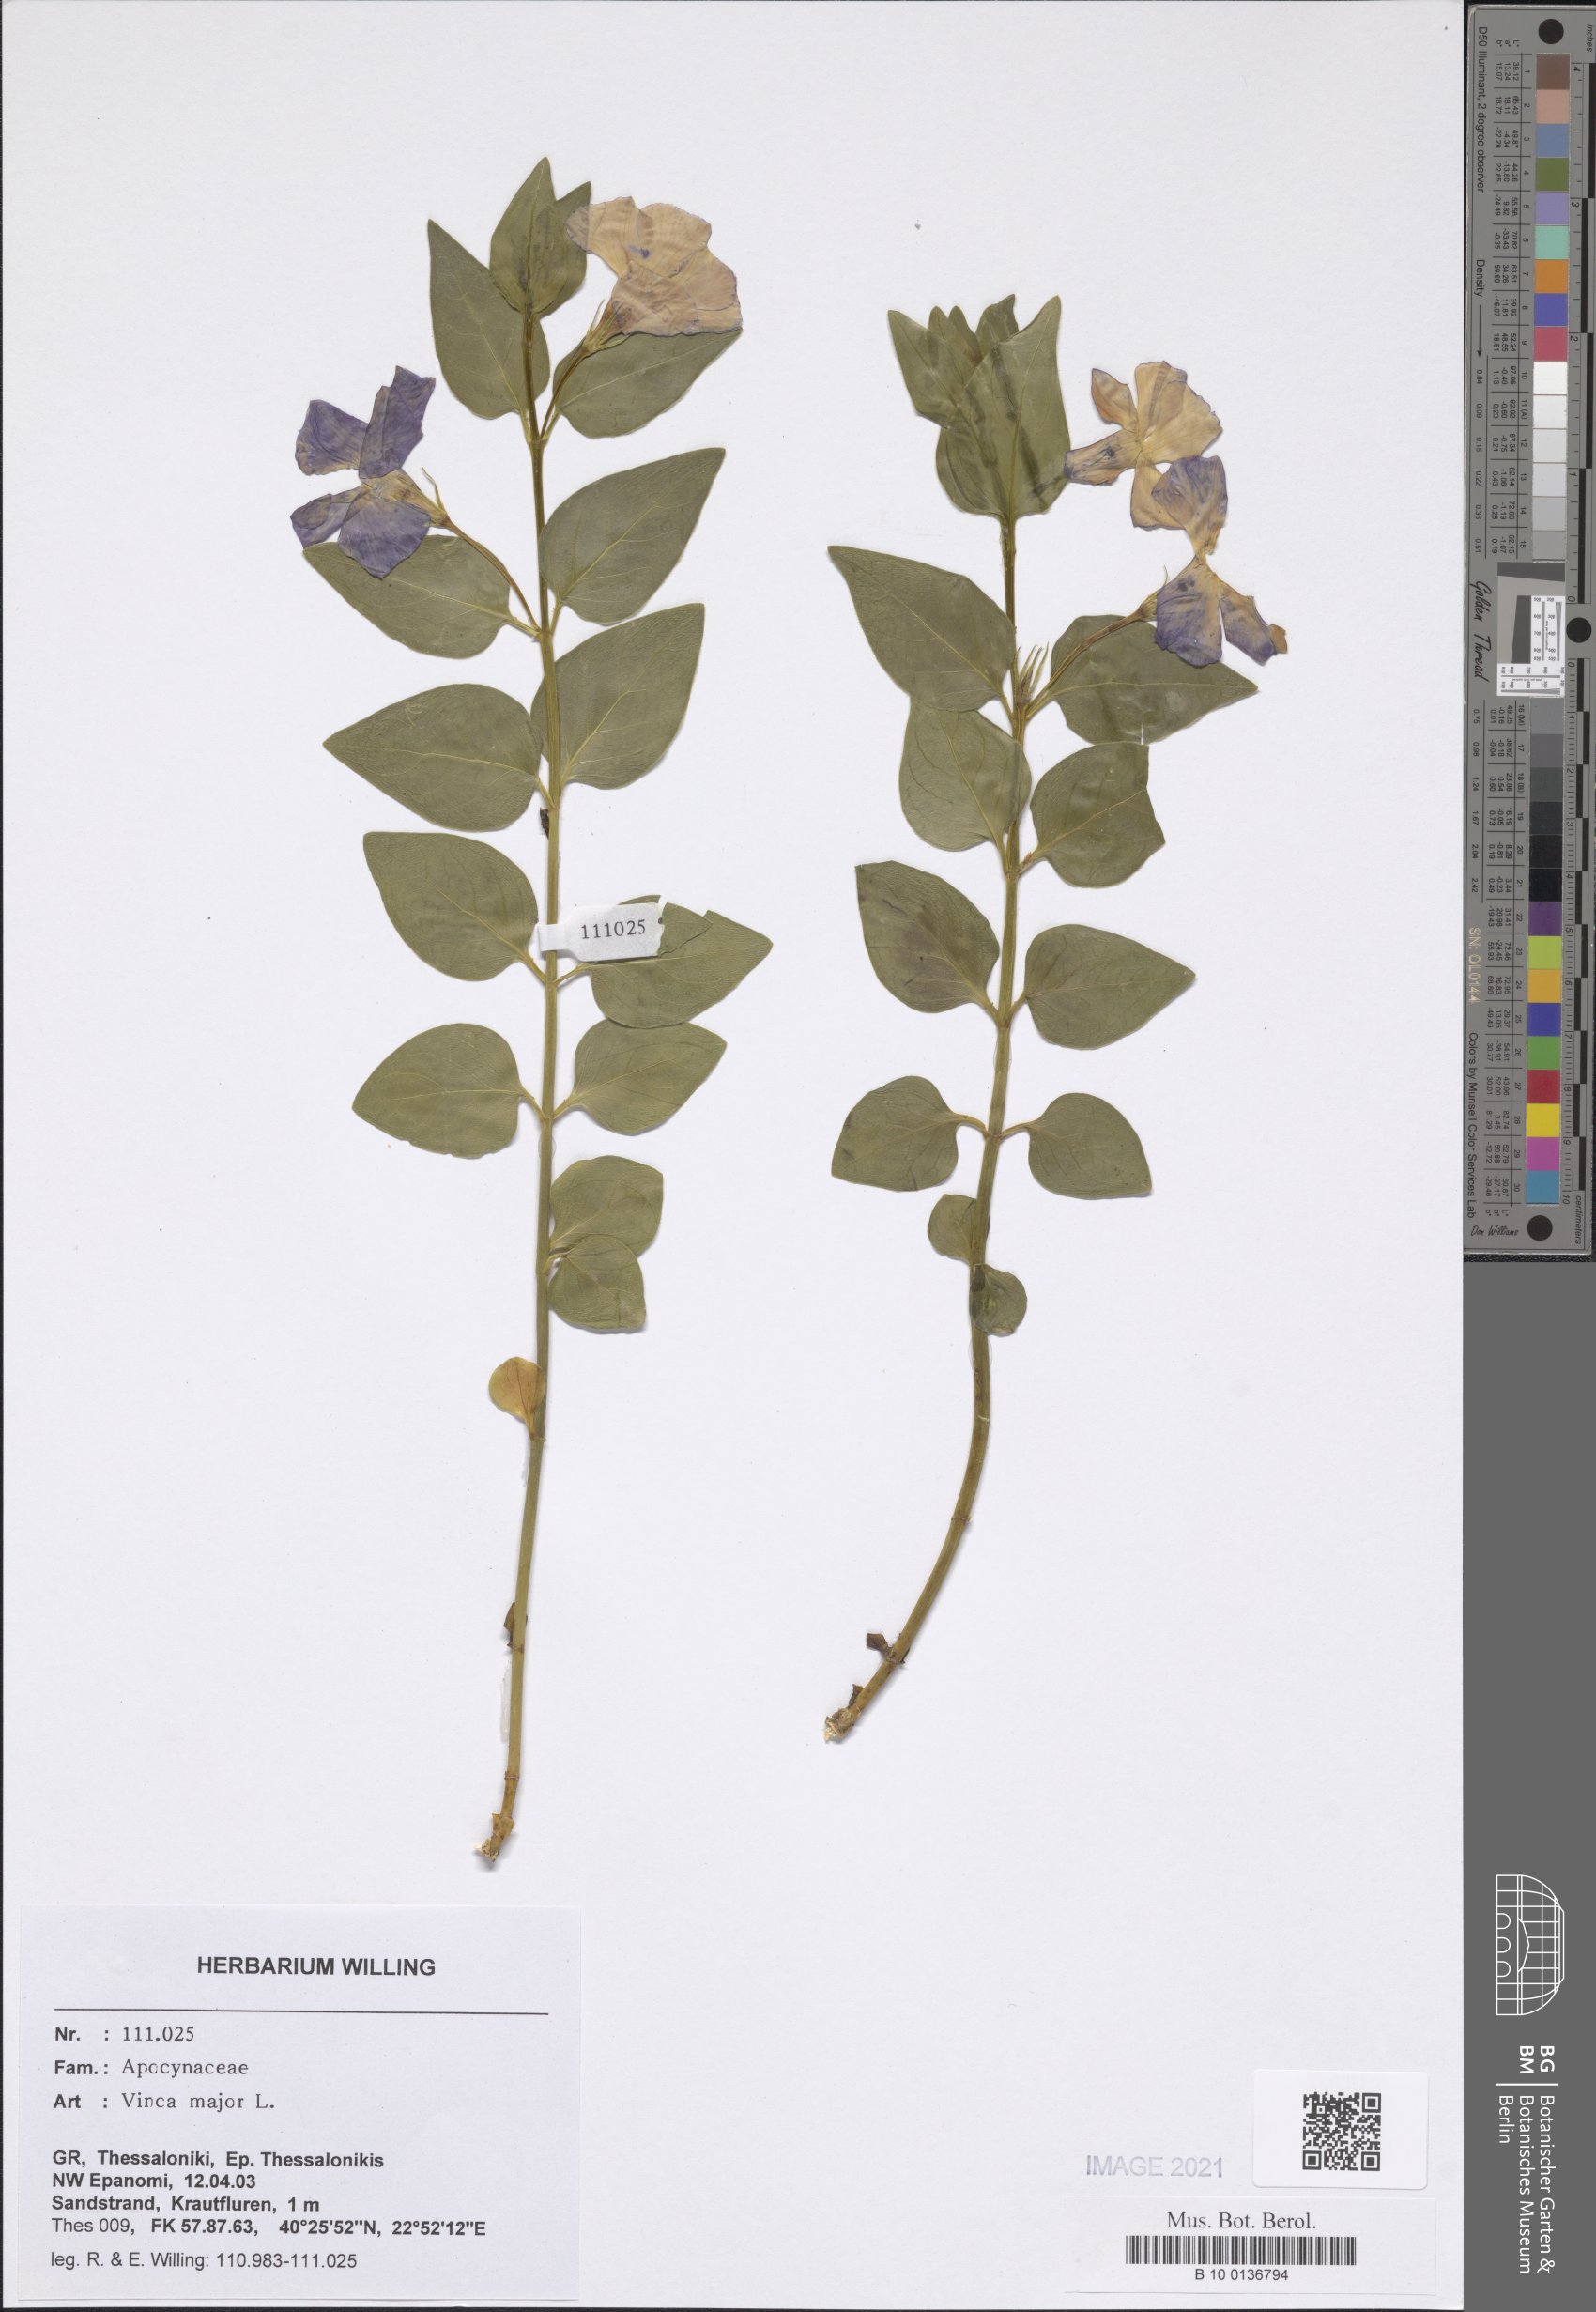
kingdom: Plantae
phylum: Tracheophyta
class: Magnoliopsida
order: Gentianales
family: Apocynaceae
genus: Vinca
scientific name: Vinca major
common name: Greater periwinkle
